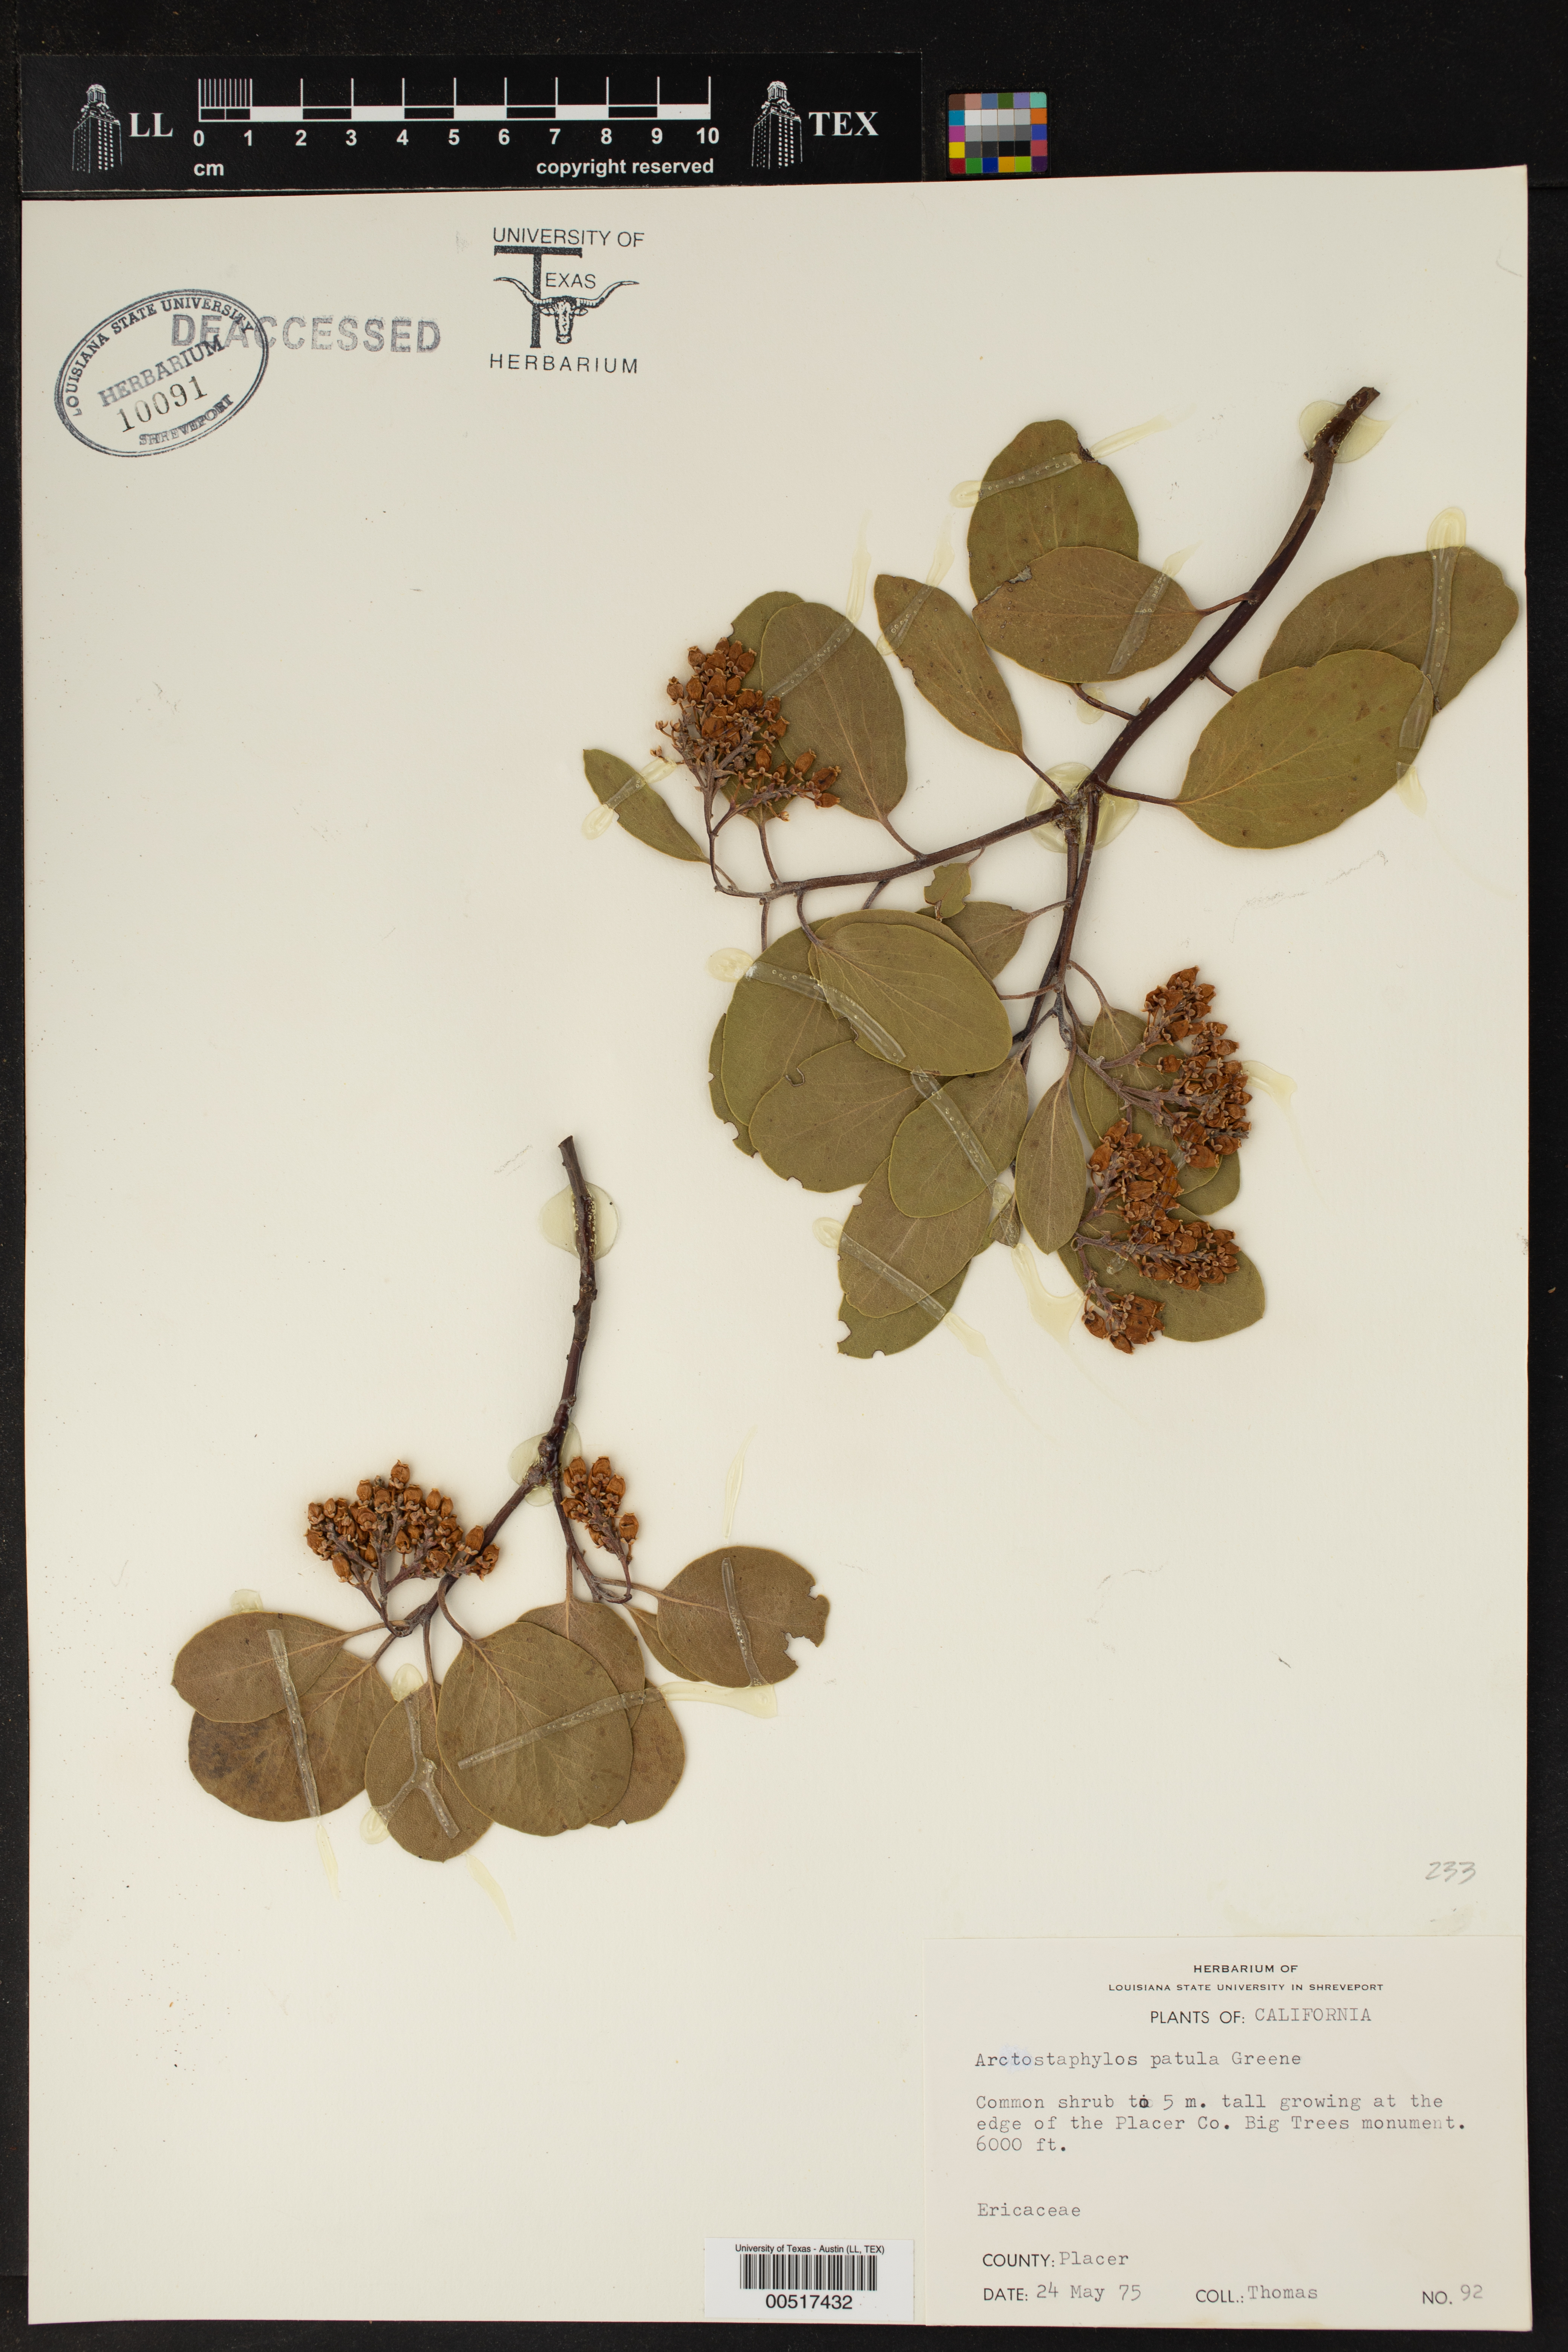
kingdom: Plantae
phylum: Tracheophyta
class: Magnoliopsida
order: Ericales
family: Ericaceae
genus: Arctostaphylos
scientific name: Arctostaphylos patula
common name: Green-leaf manzanita
